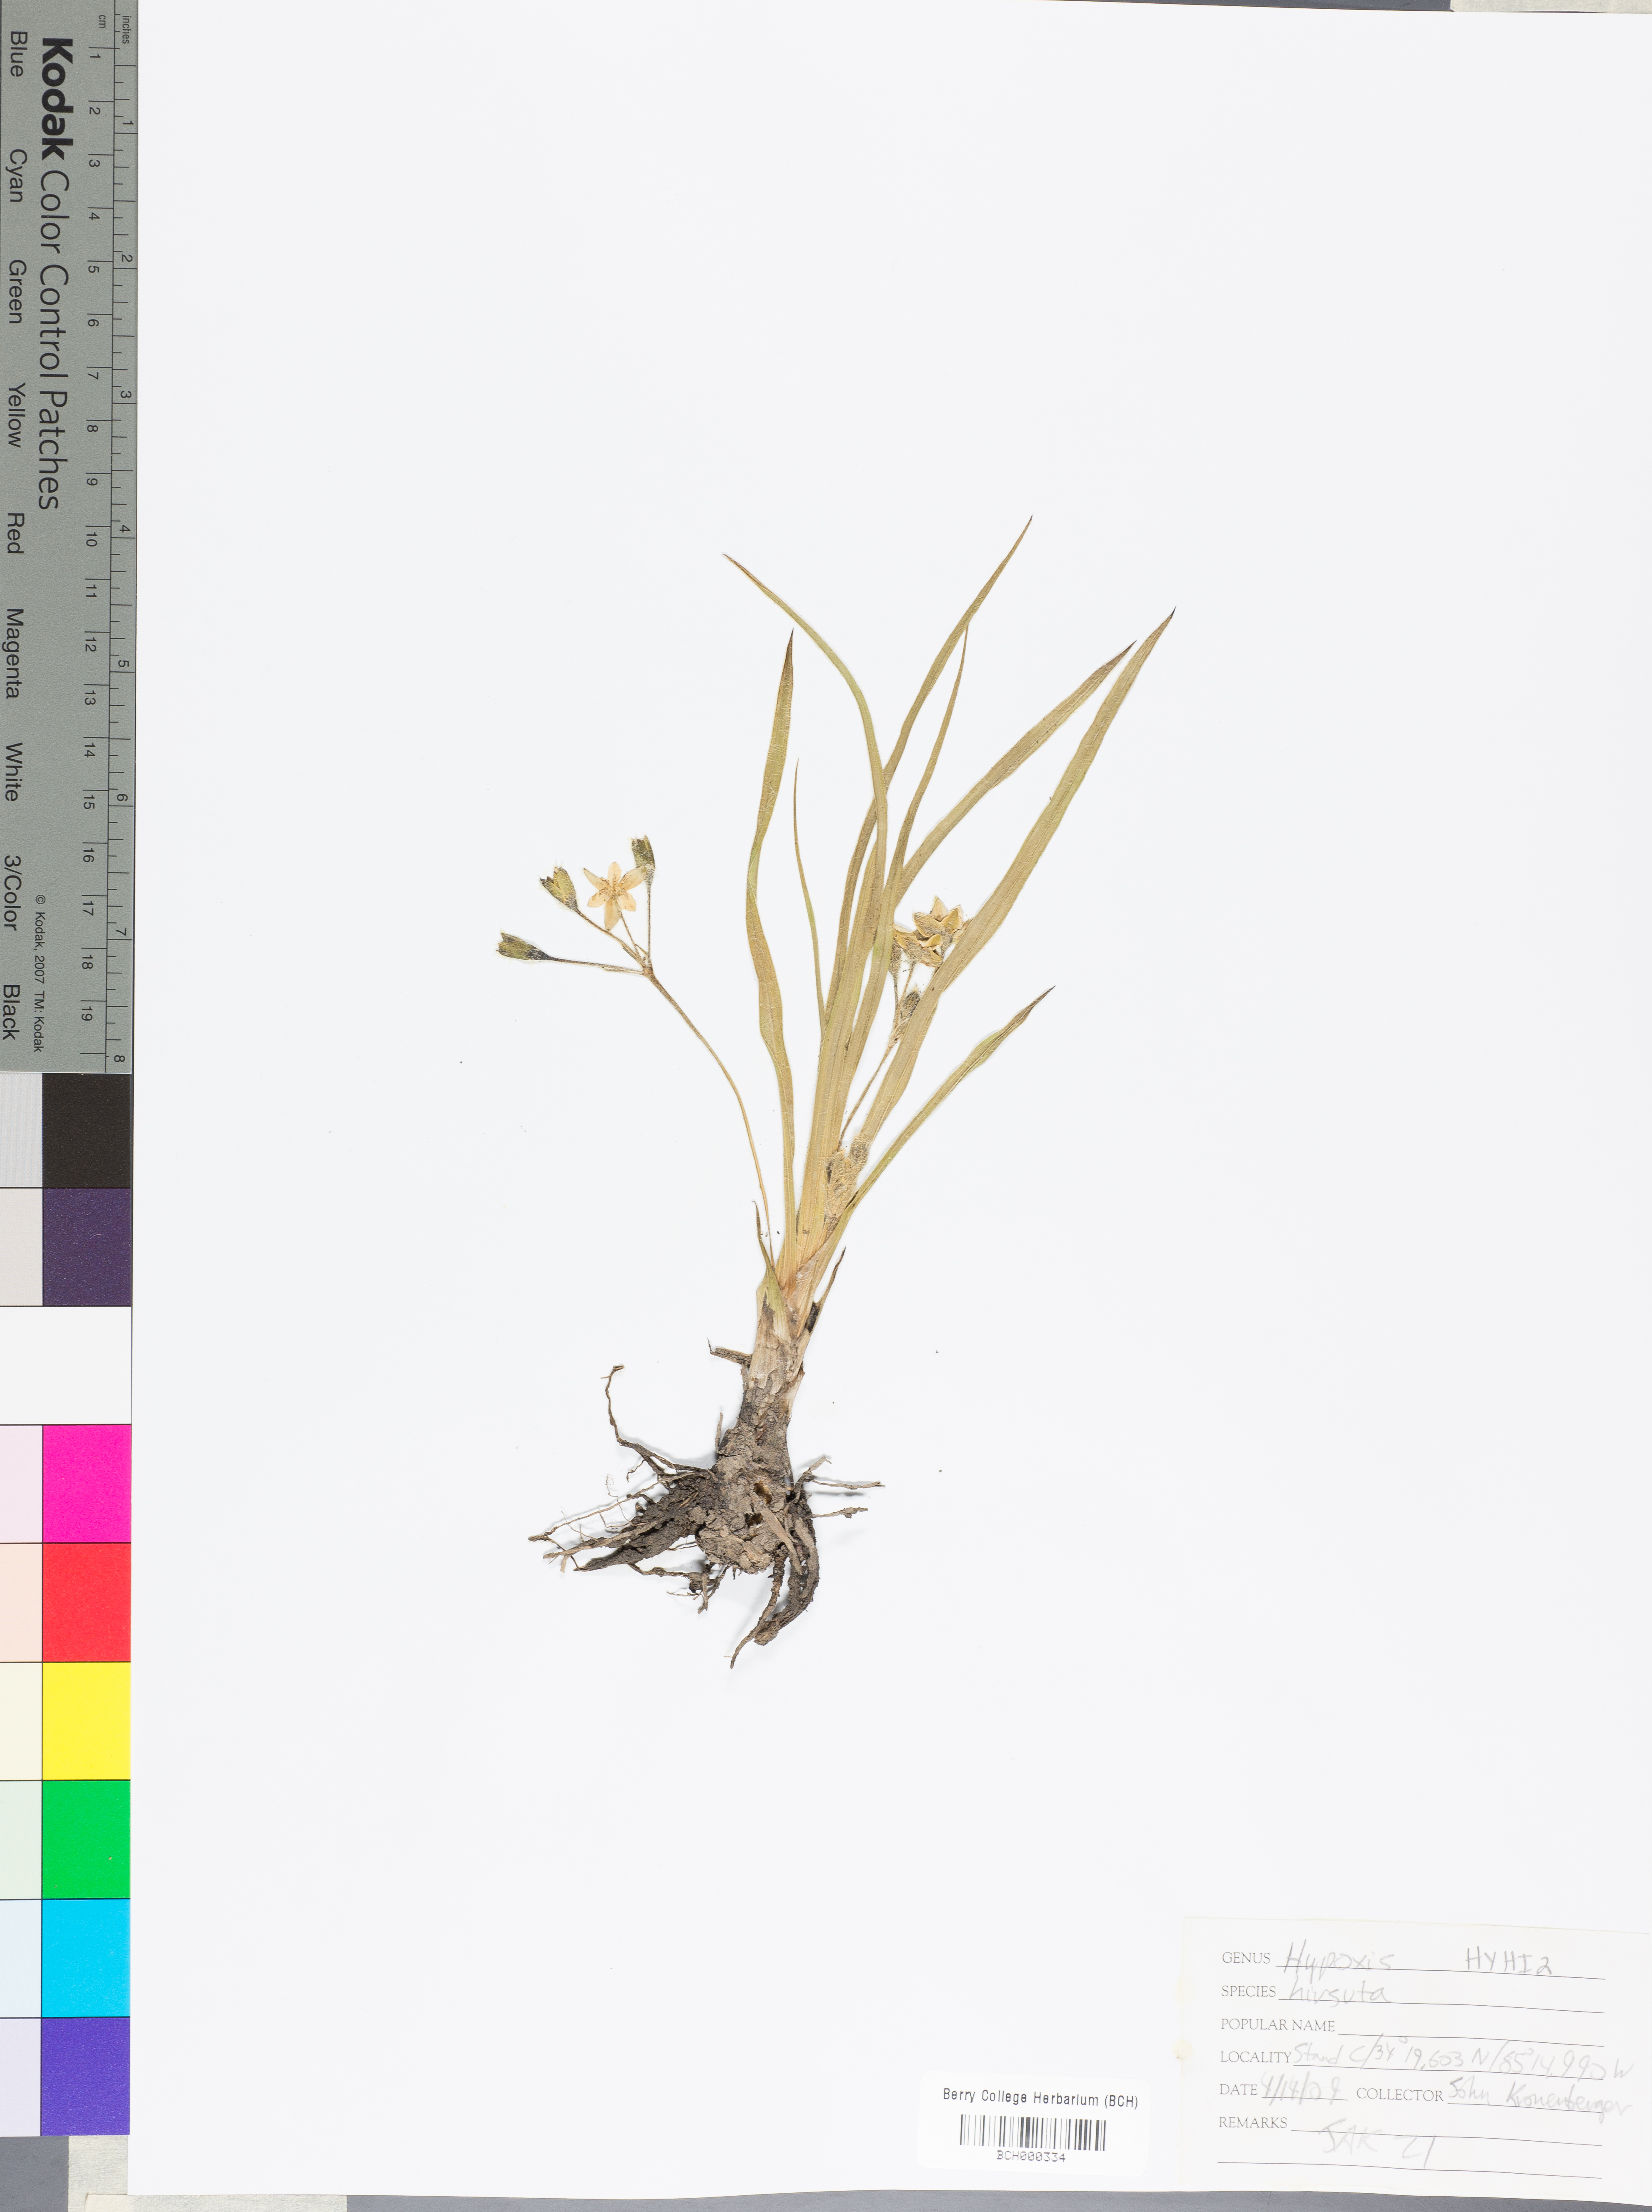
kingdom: Plantae
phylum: Tracheophyta
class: Liliopsida
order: Asparagales
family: Hypoxidaceae
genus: Hypoxis
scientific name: Hypoxis hirsuta
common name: Common goldstar
